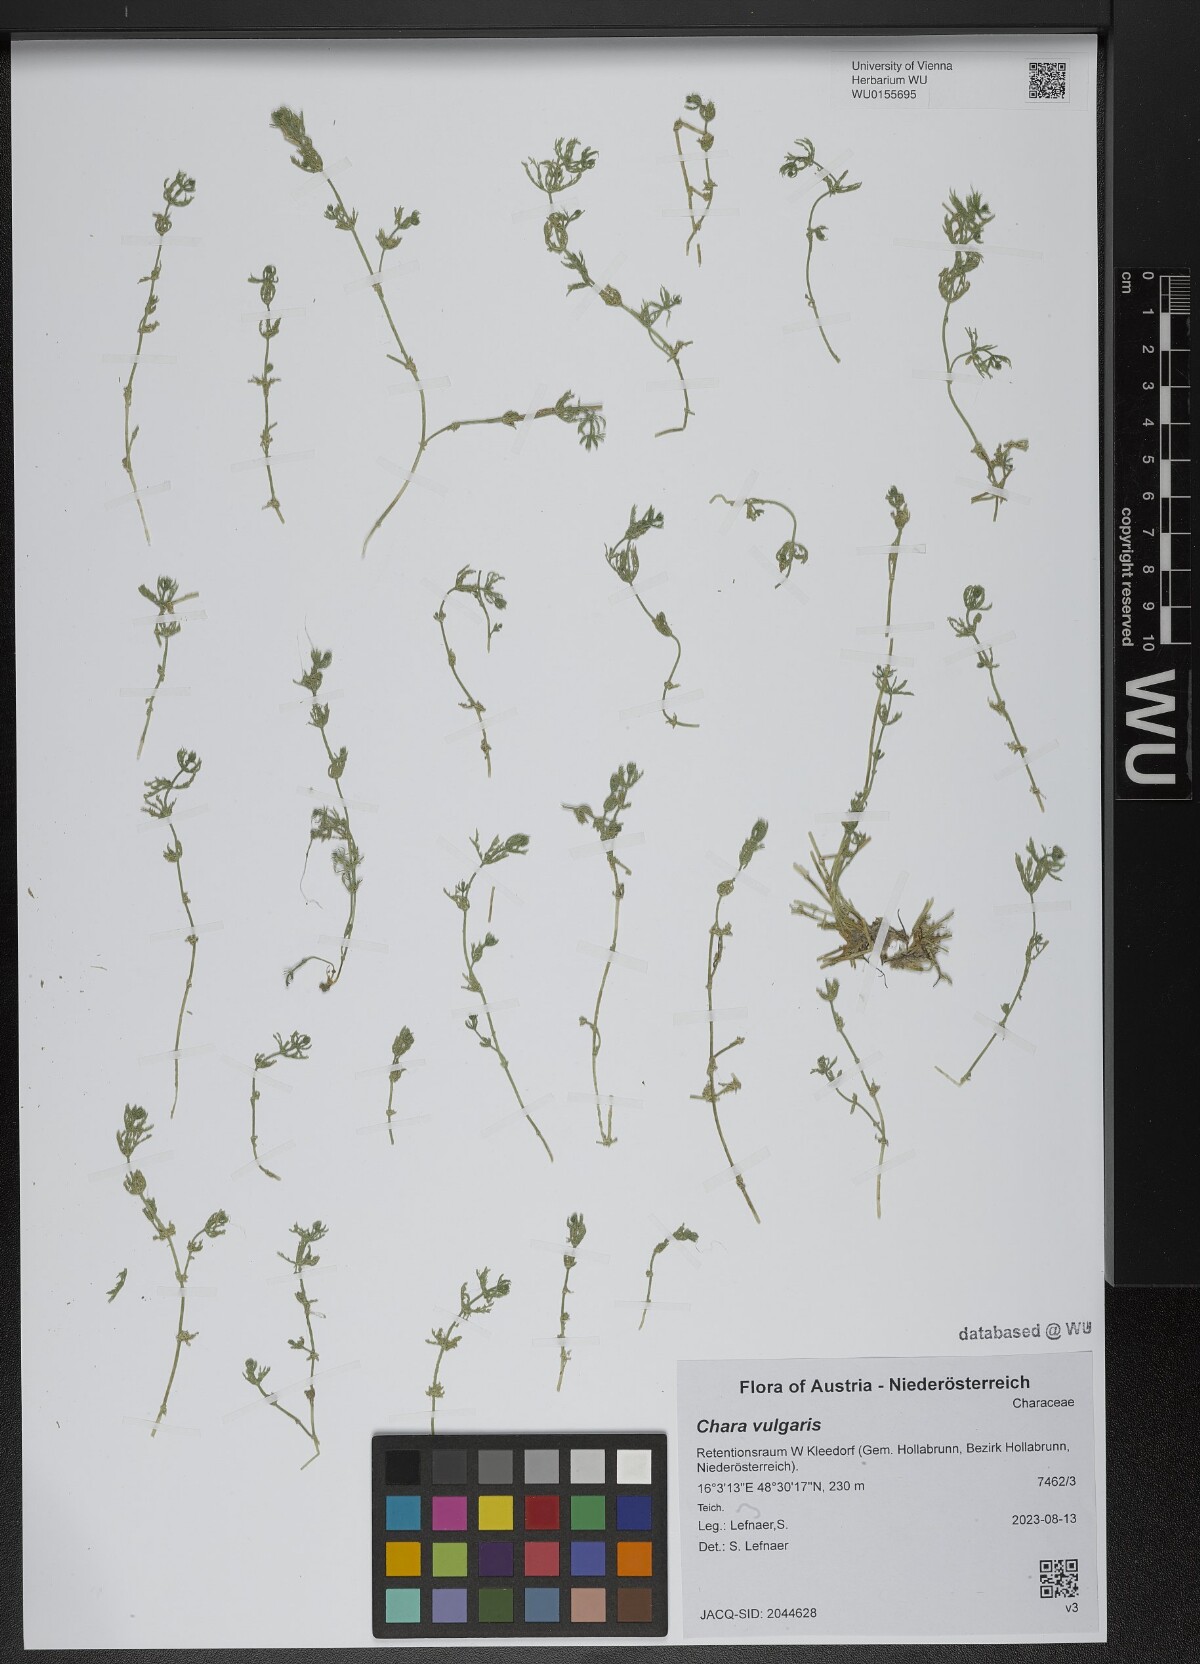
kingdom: Plantae
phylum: Charophyta
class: Charophyceae
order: Charales
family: Characeae
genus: Chara
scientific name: Chara vulgaris
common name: Common stonewort
